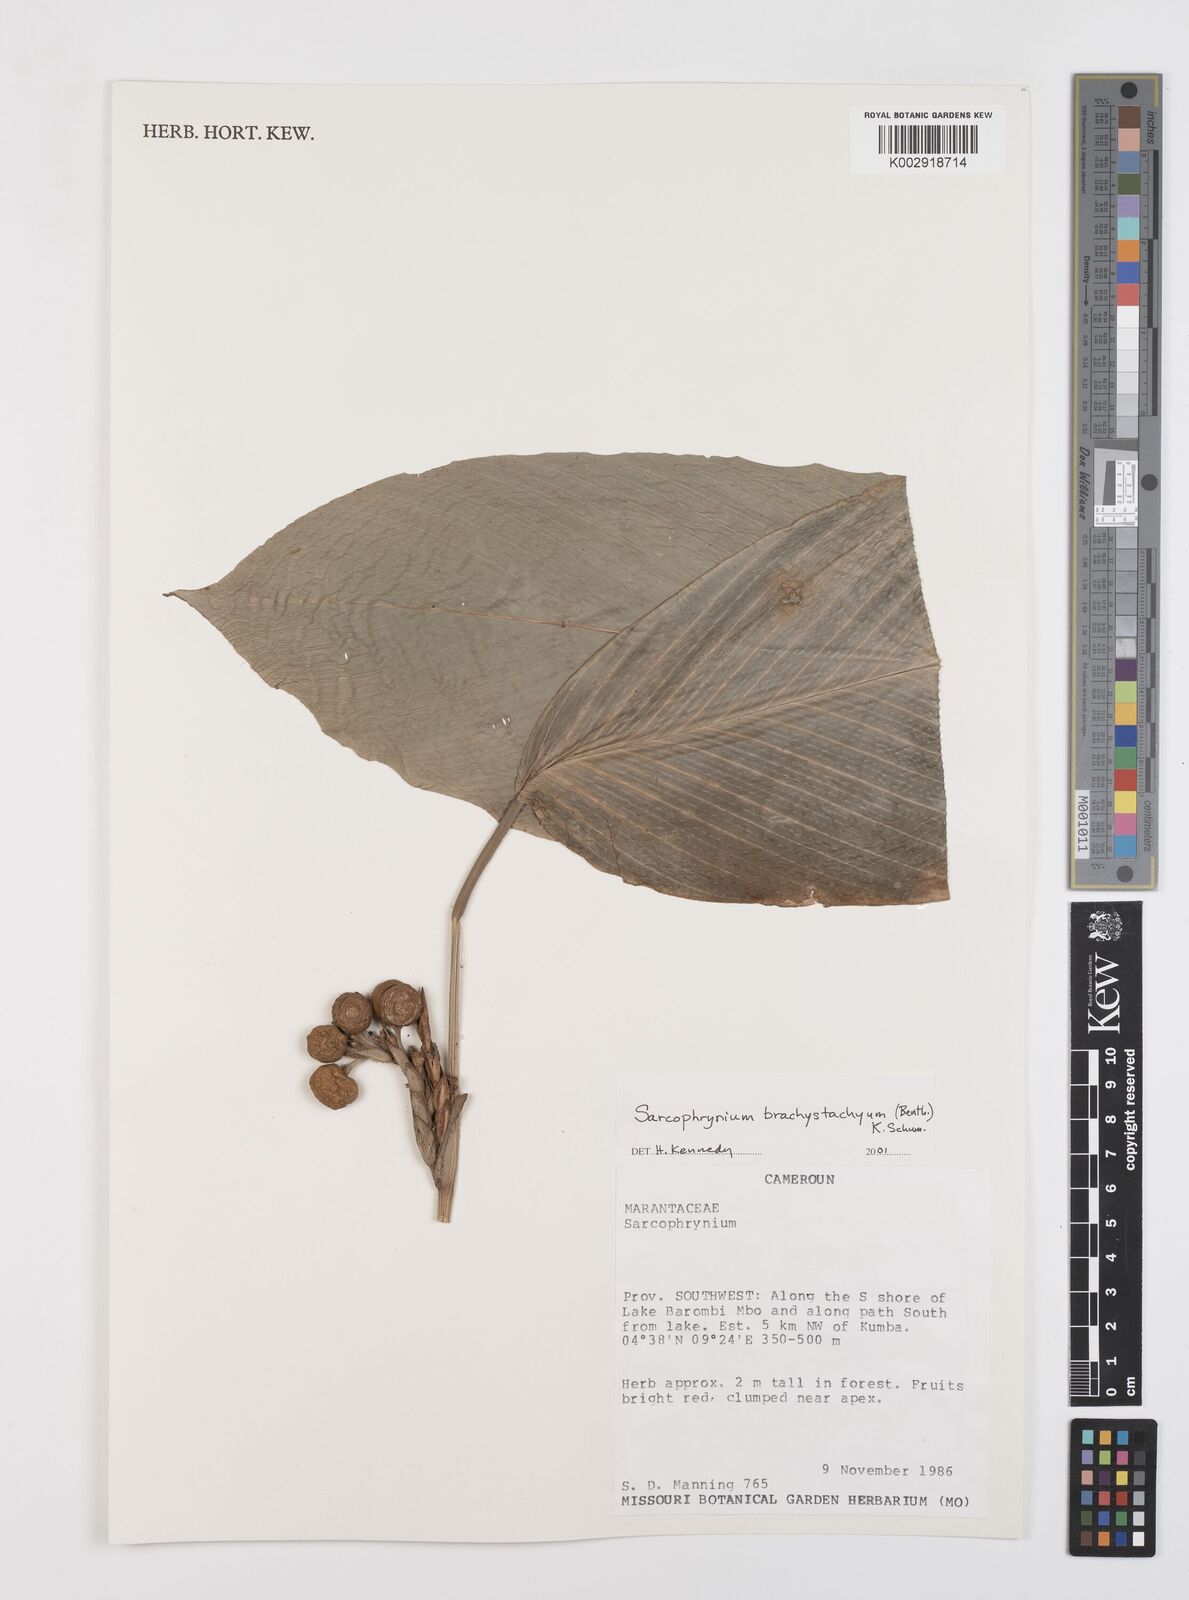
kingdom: Plantae
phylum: Tracheophyta
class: Liliopsida
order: Zingiberales
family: Marantaceae
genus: Sarcophrynium
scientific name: Sarcophrynium brachystachyum
